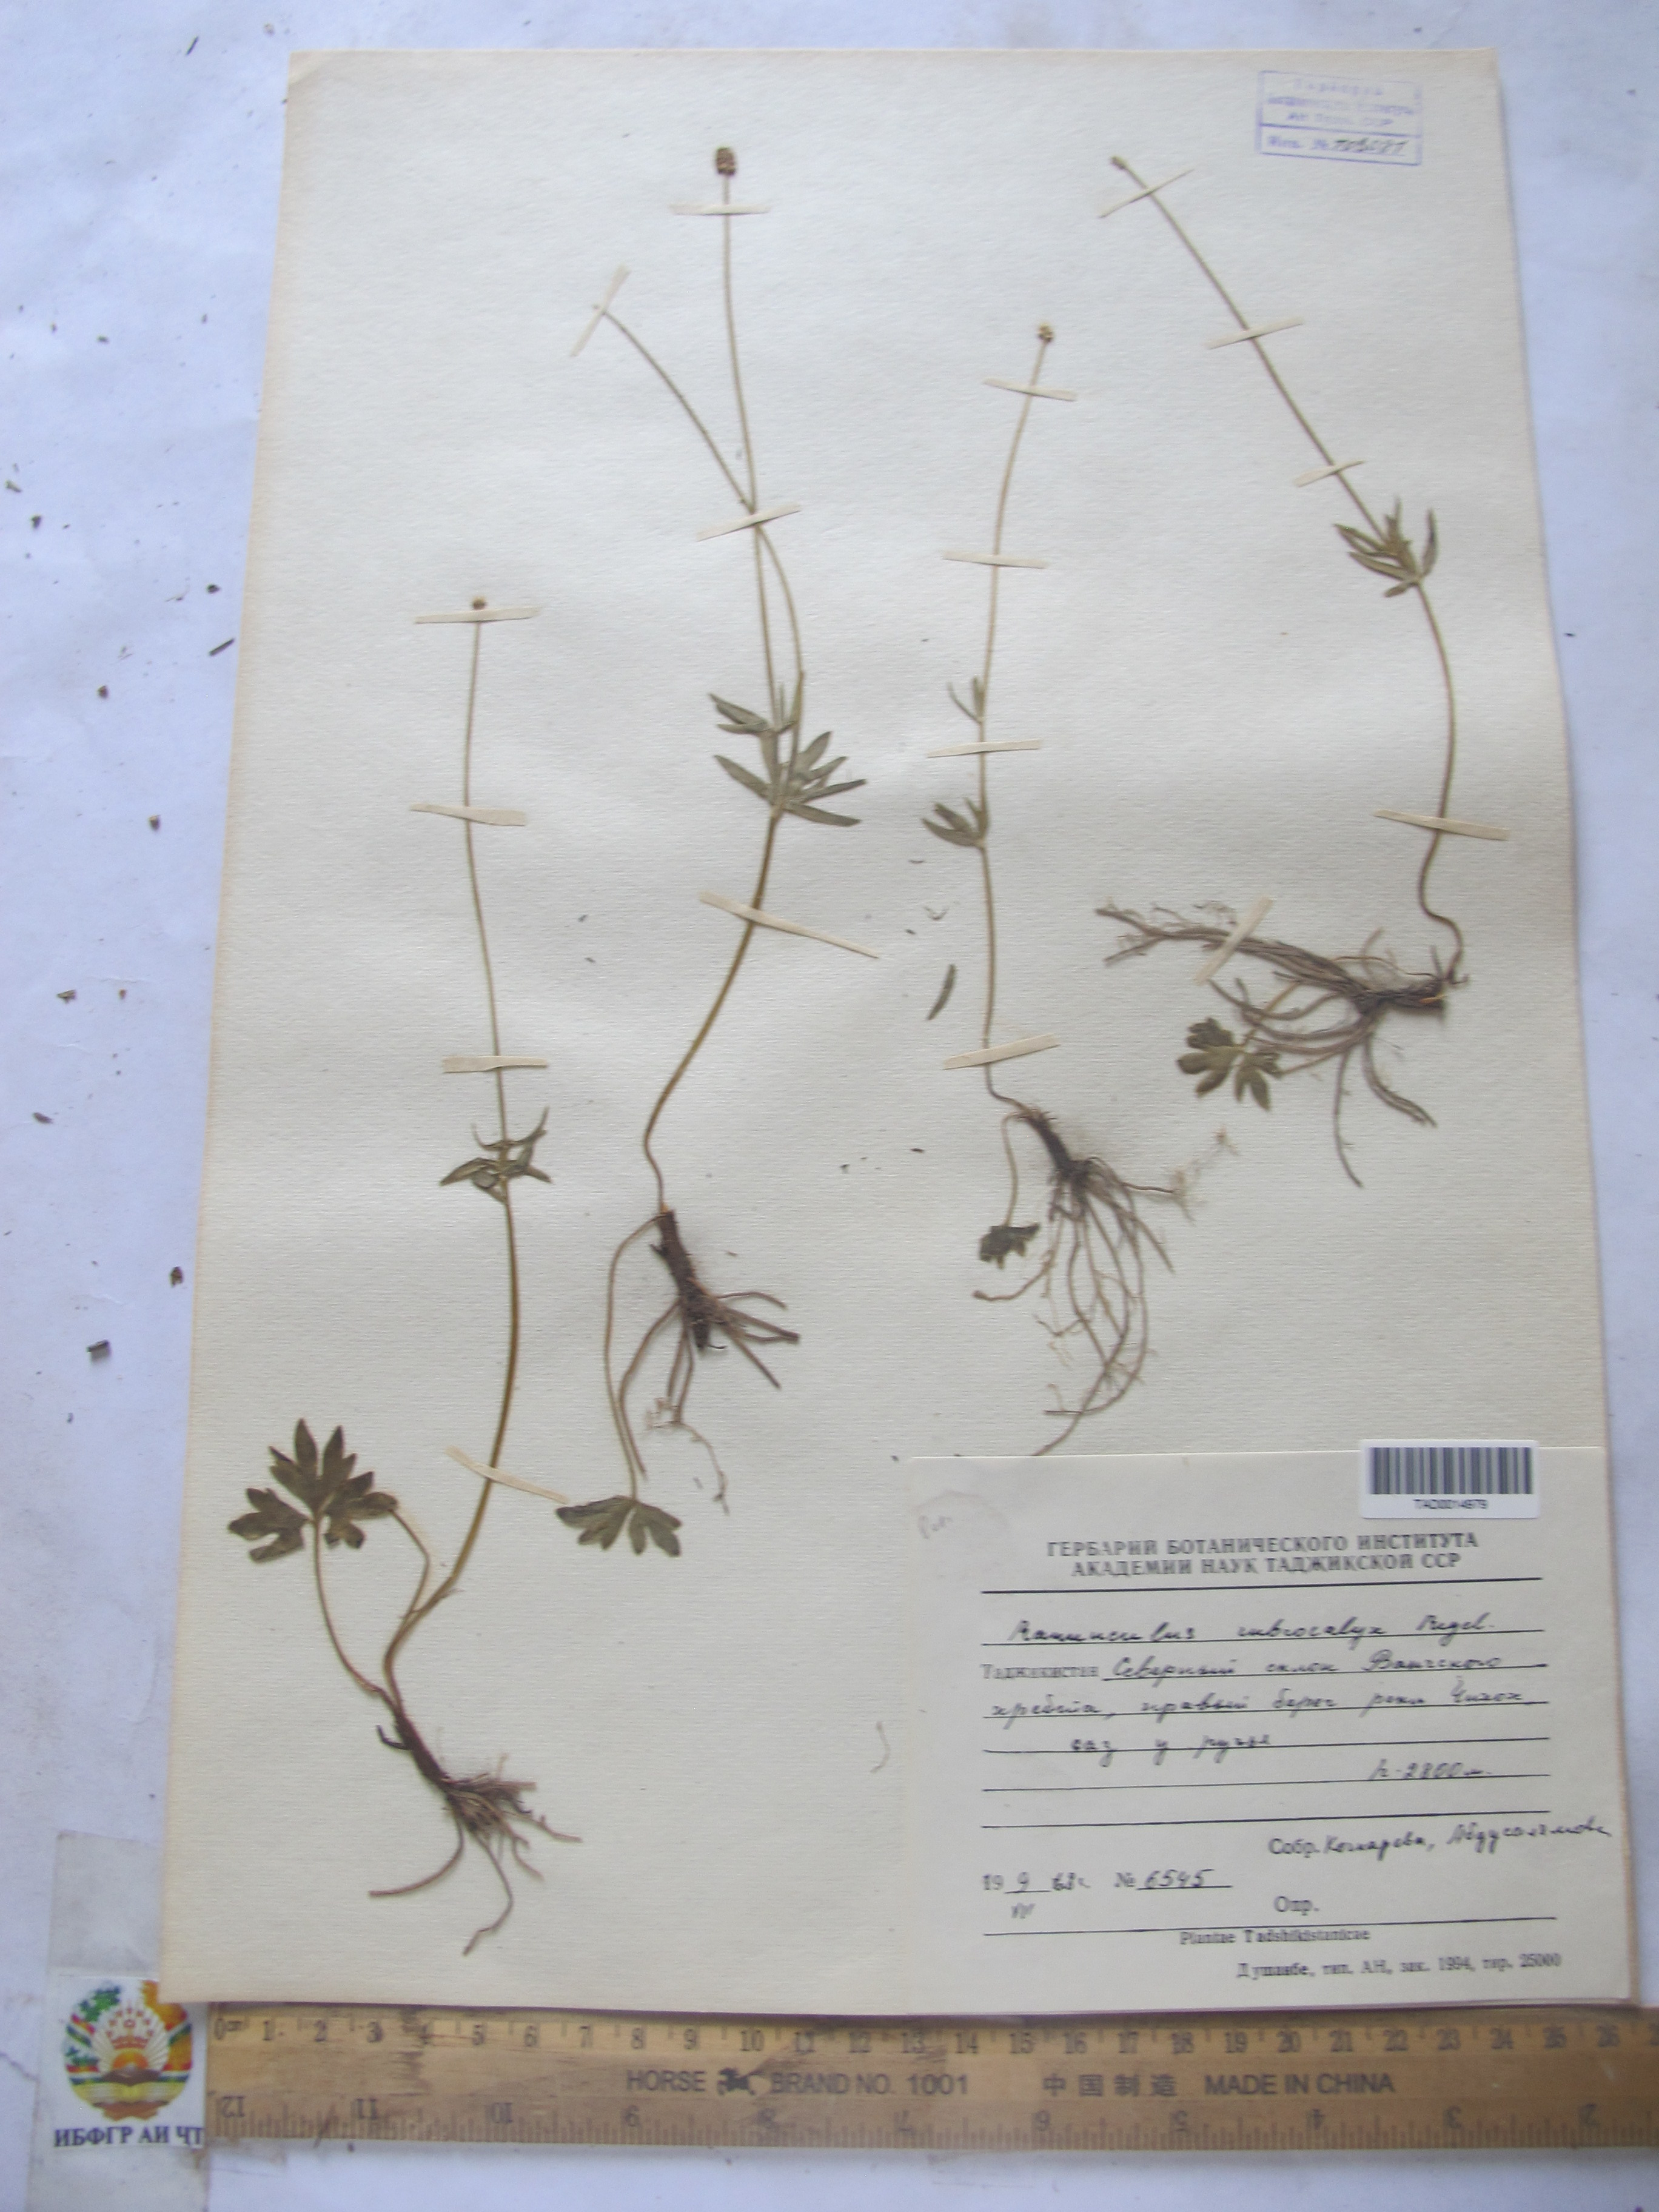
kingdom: Plantae
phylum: Tracheophyta
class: Magnoliopsida
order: Ranunculales
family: Ranunculaceae
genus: Ranunculus
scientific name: Ranunculus rubrocalyx
